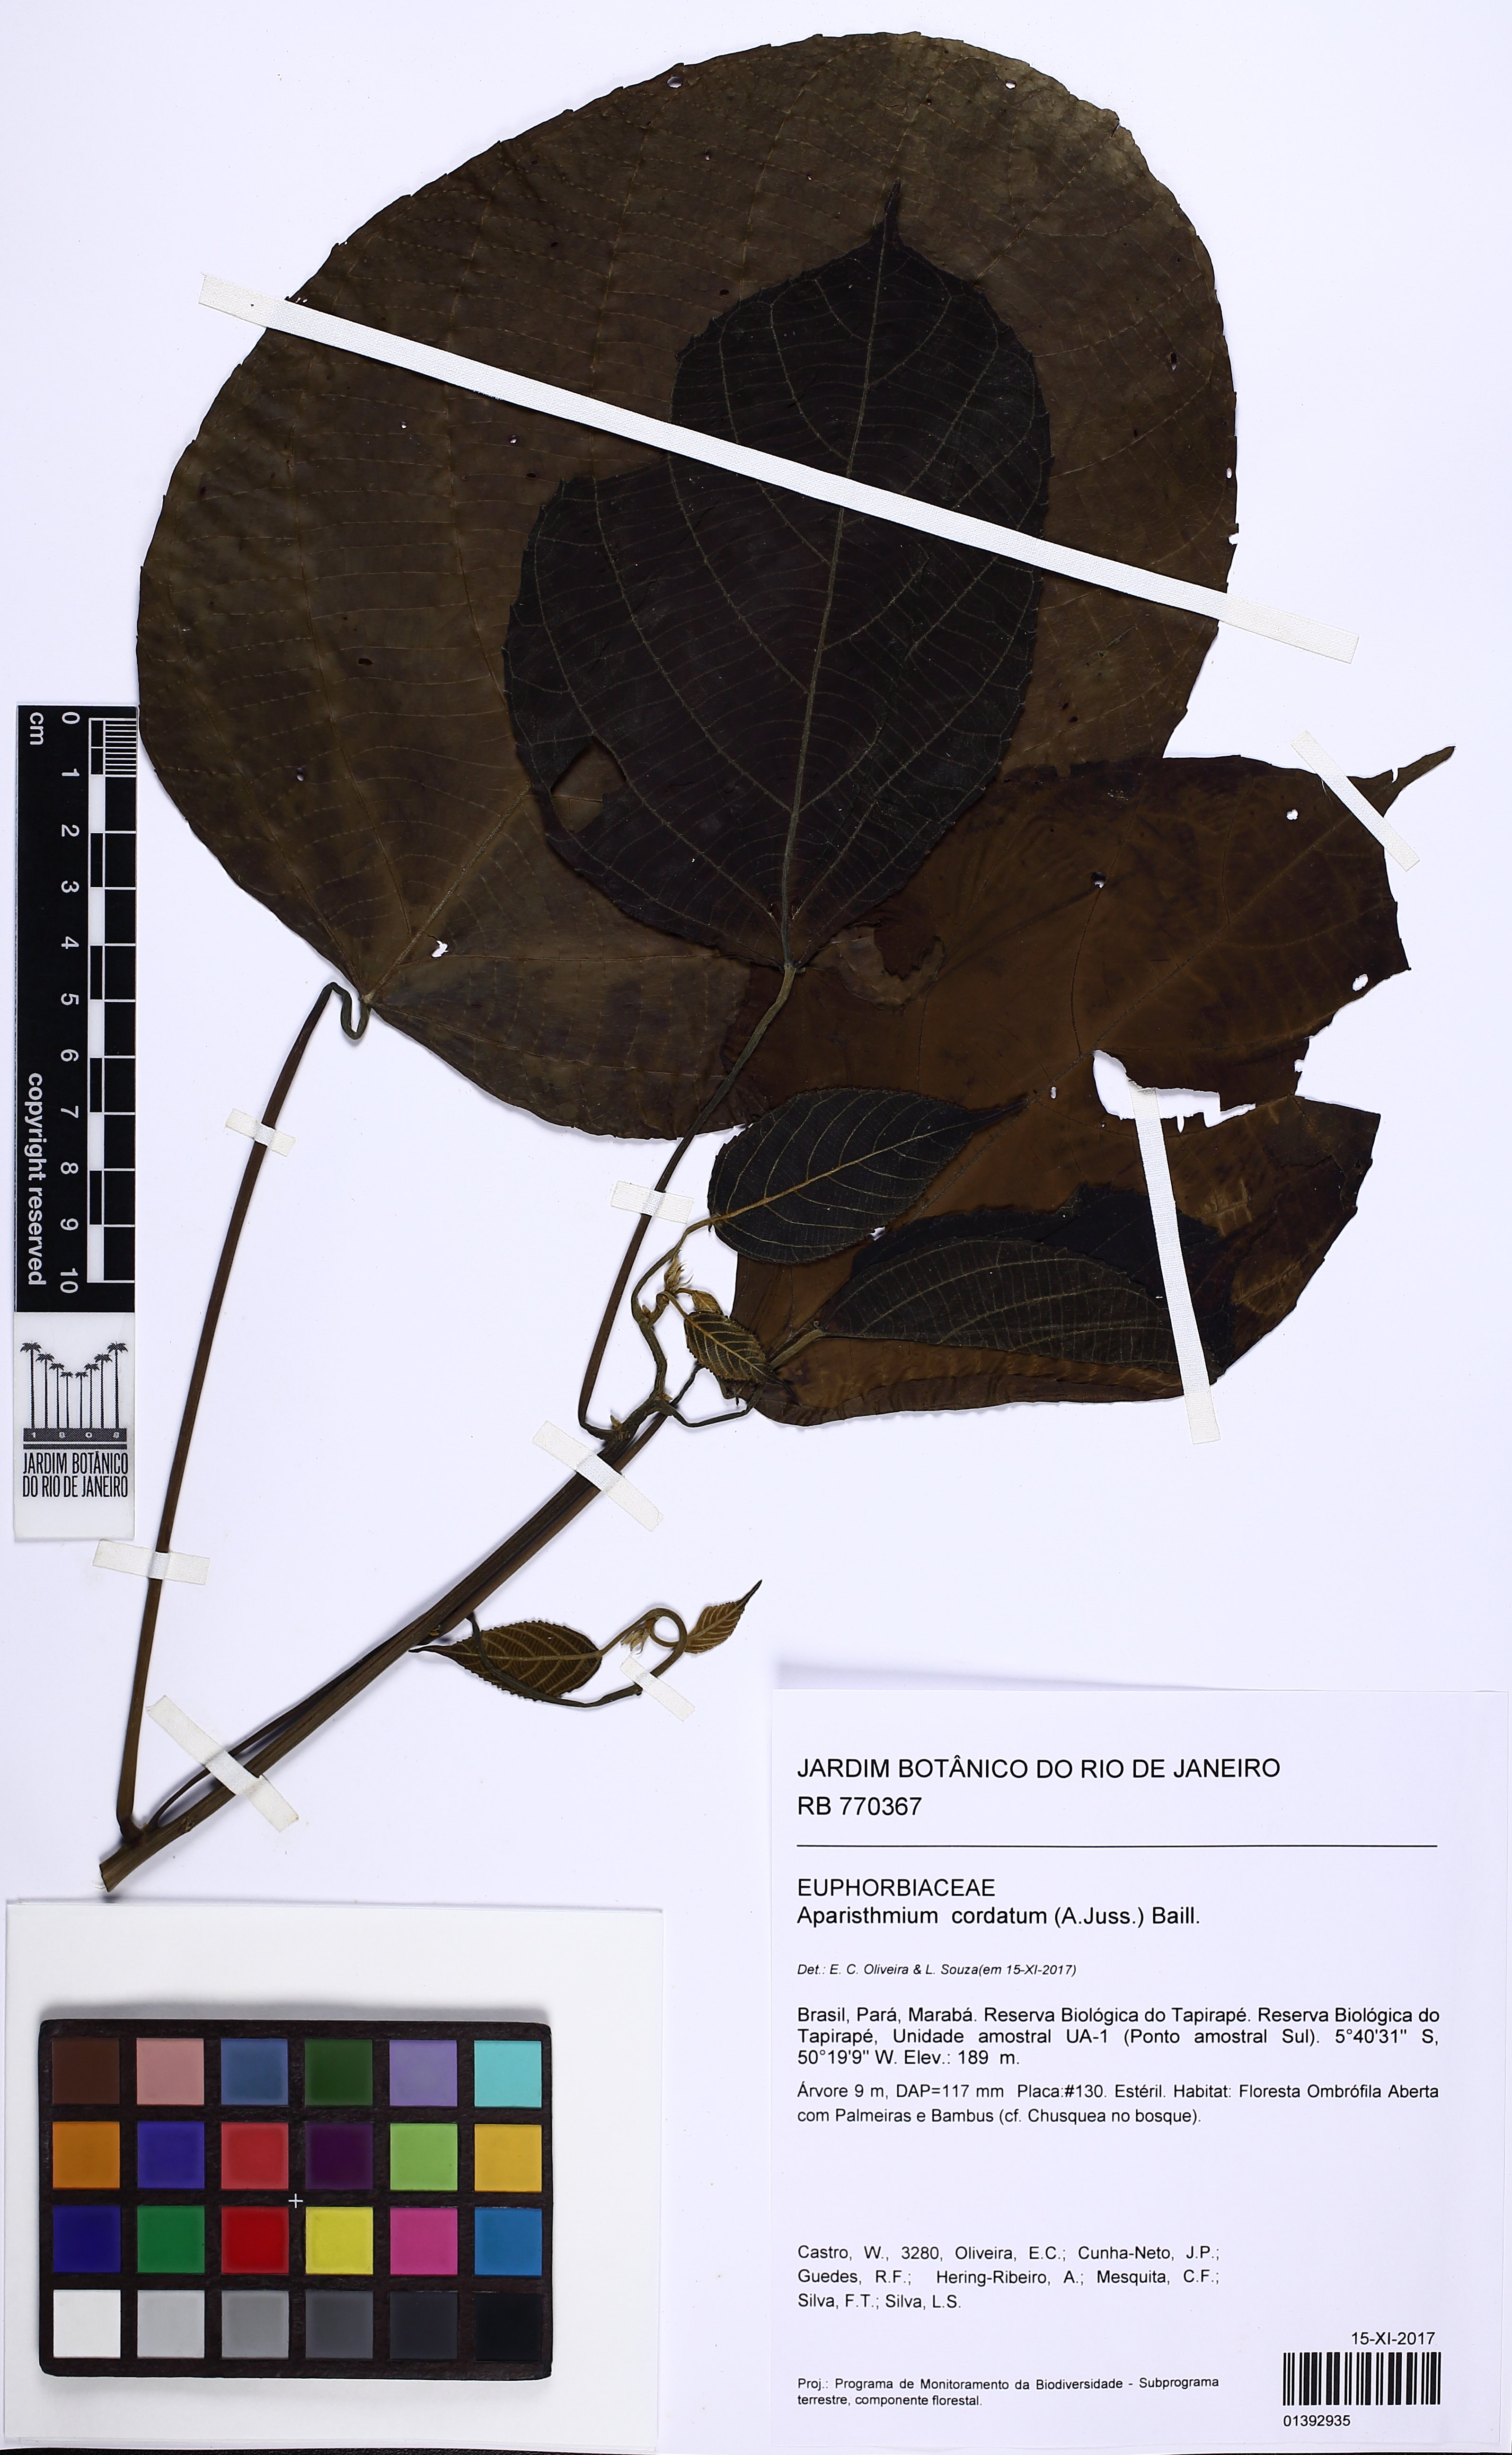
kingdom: Plantae
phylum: Tracheophyta
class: Magnoliopsida
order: Malpighiales
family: Euphorbiaceae
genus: Aparisthmium
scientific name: Aparisthmium cordatum
